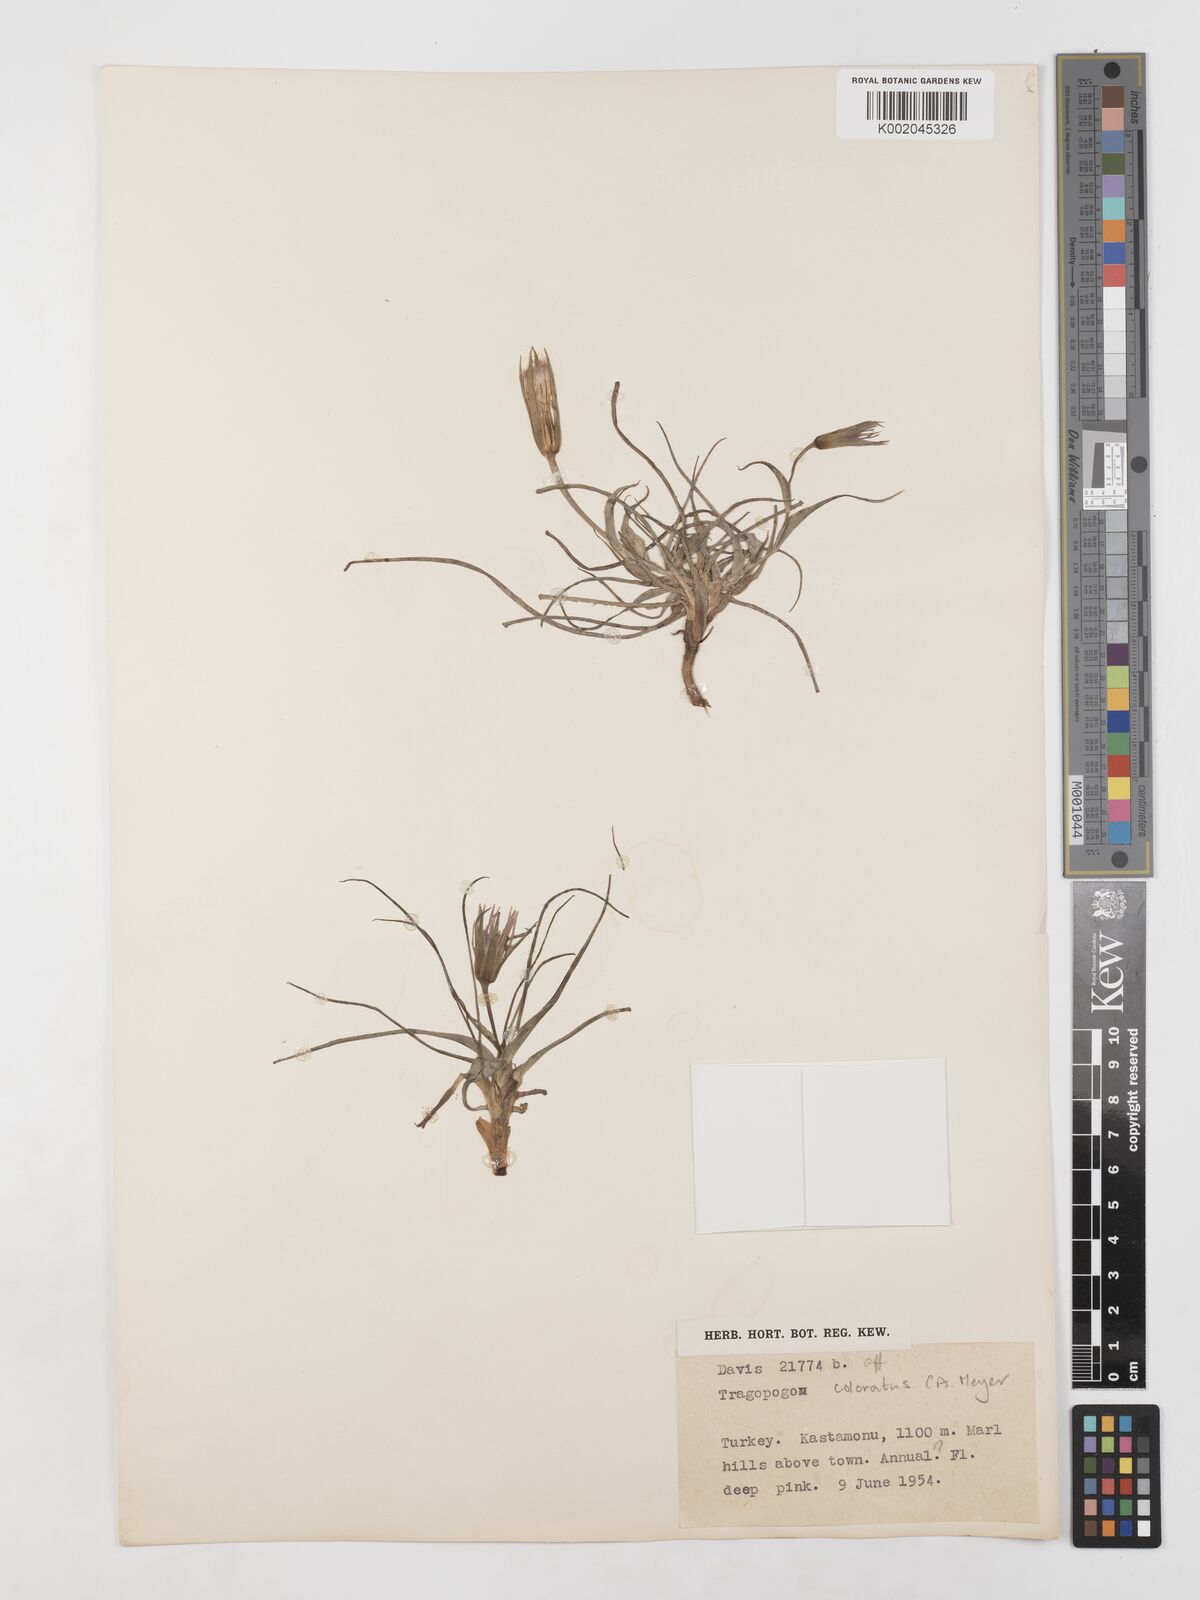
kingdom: Plantae
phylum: Tracheophyta
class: Magnoliopsida
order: Asterales
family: Asteraceae
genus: Tragopogon
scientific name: Tragopogon coloratus
